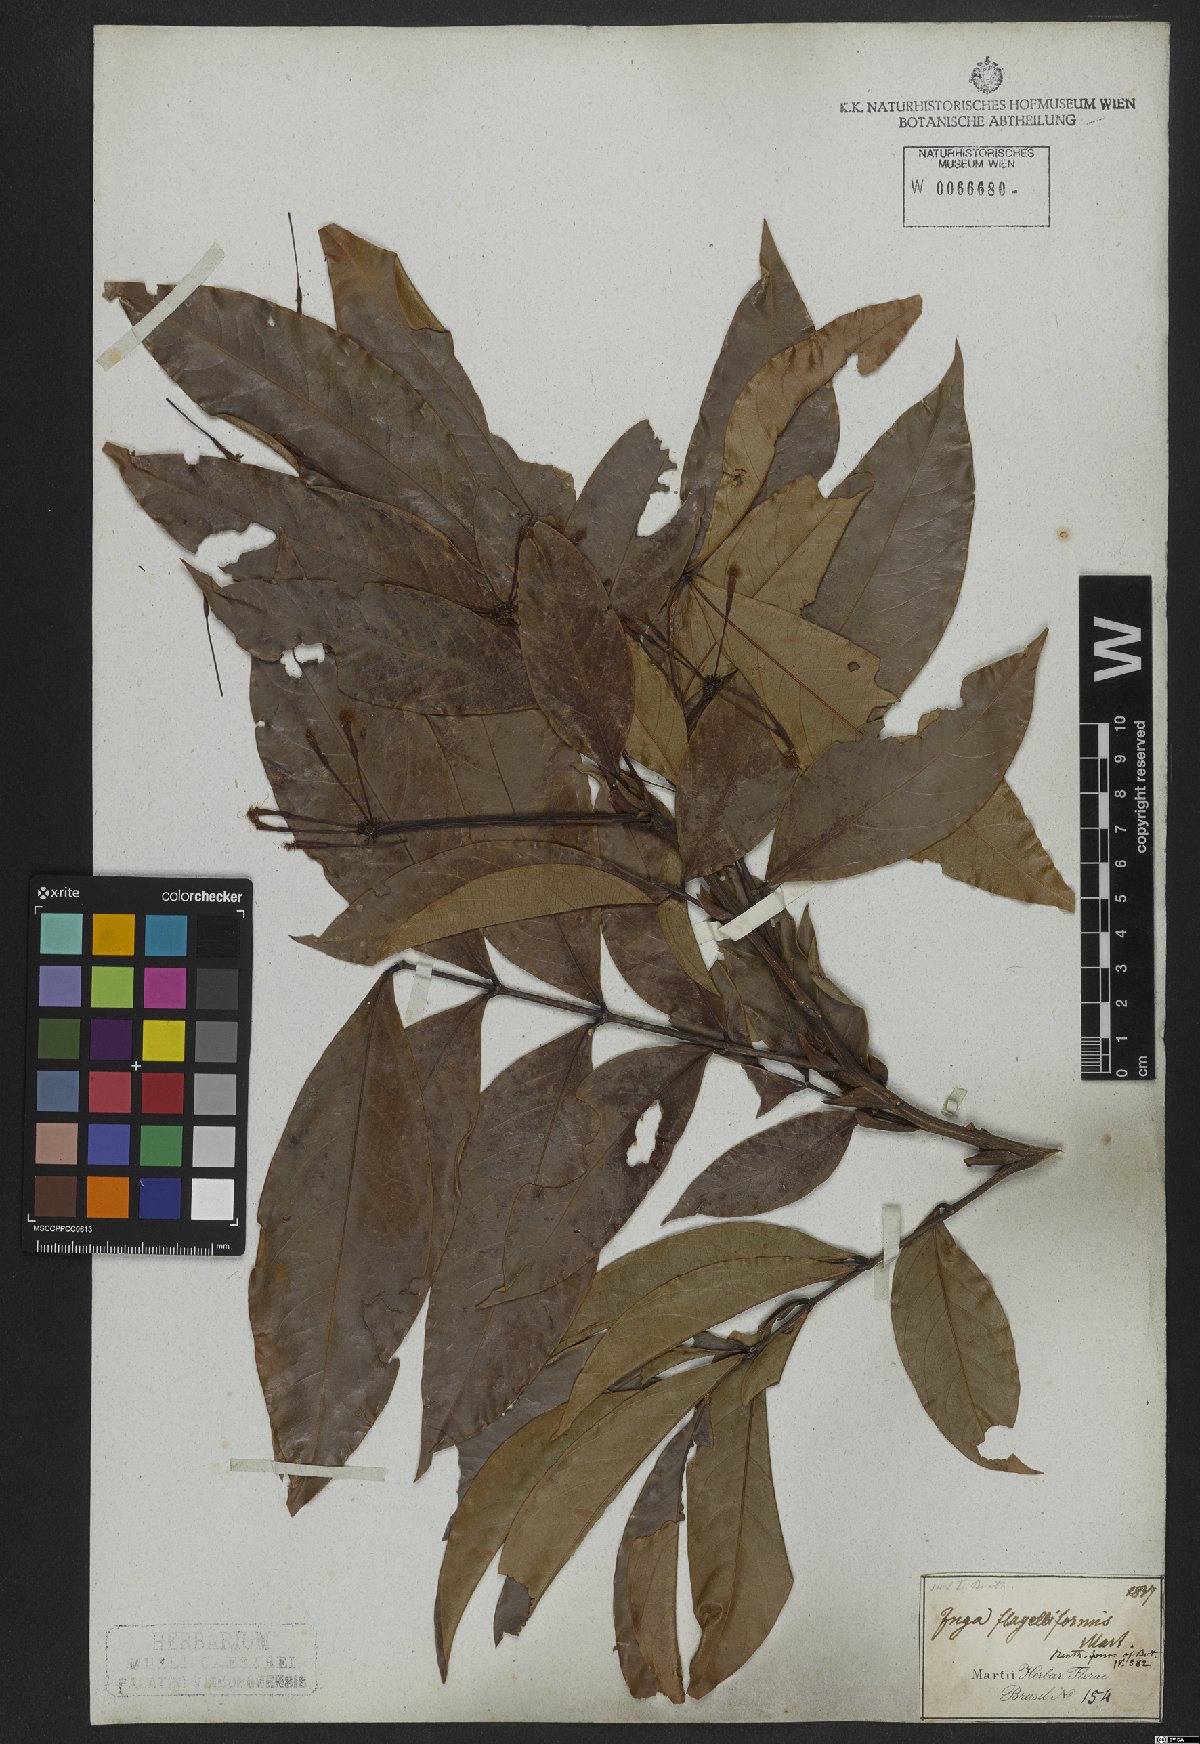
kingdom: Plantae
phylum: Tracheophyta
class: Magnoliopsida
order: Fabales
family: Fabaceae
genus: Inga
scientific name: Inga flagelliformis
